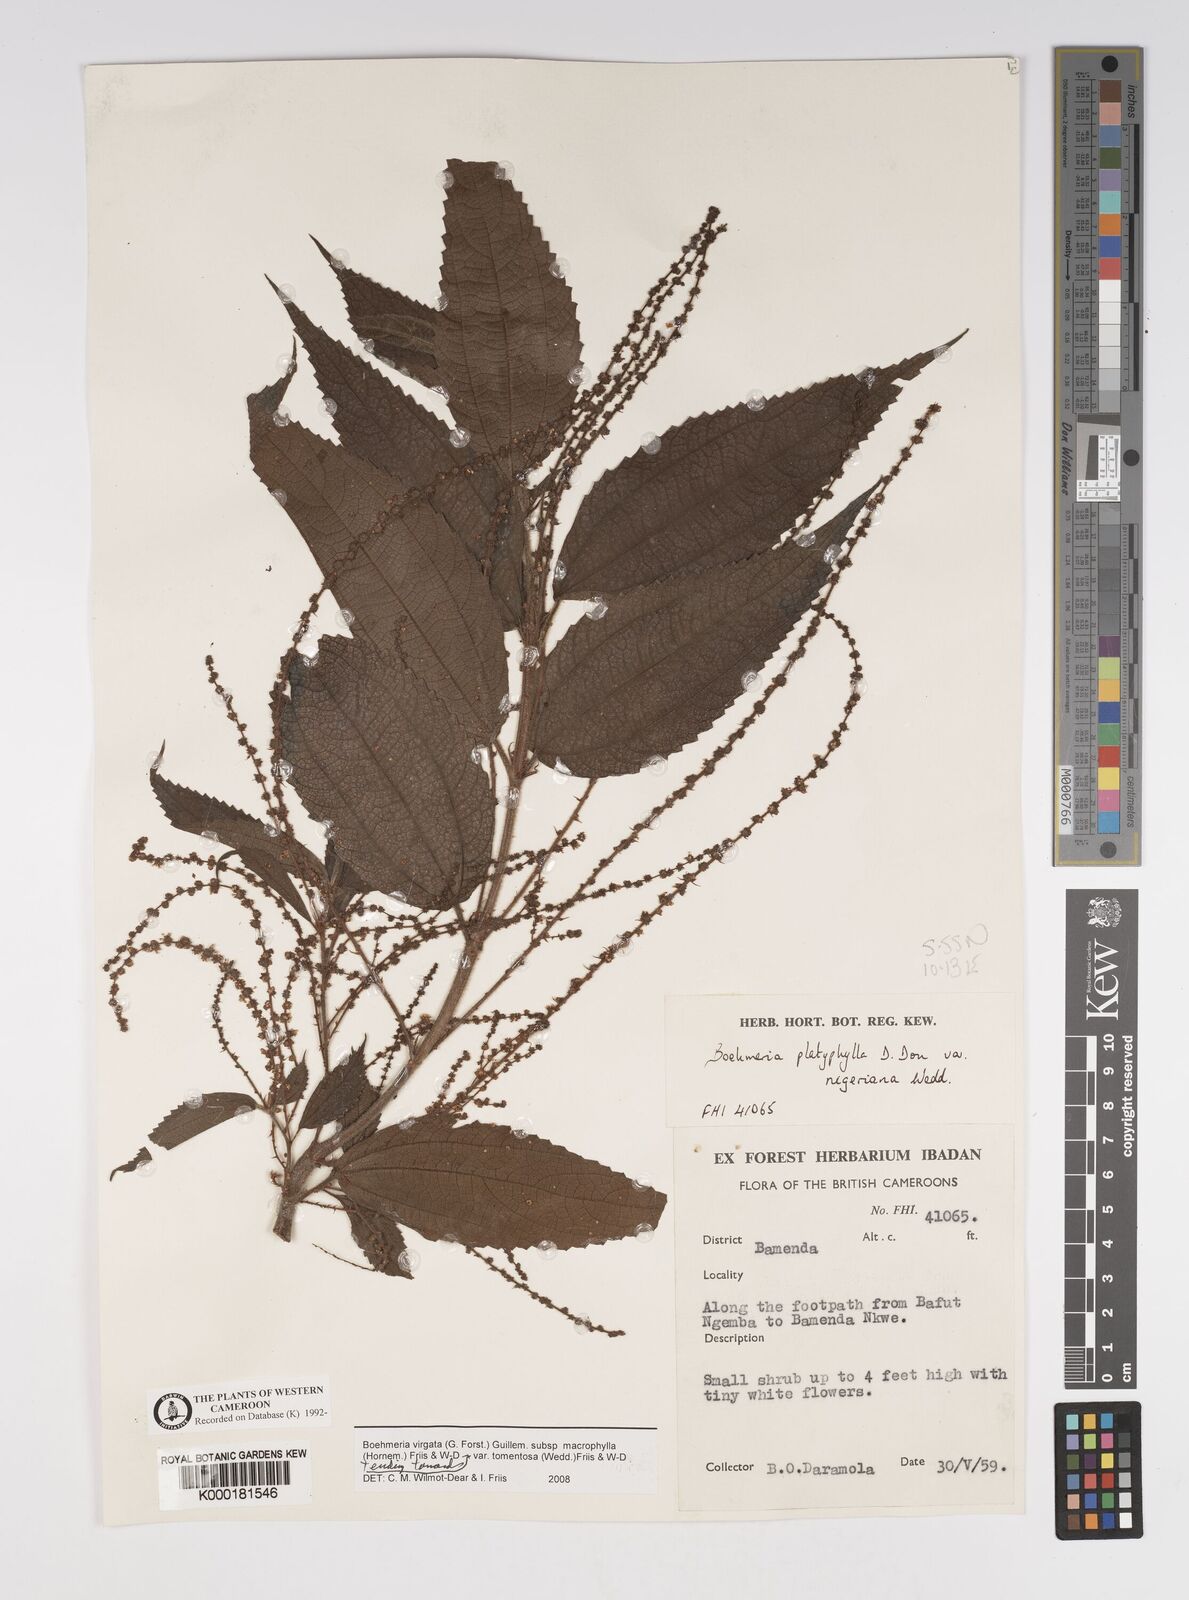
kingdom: Plantae
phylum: Tracheophyta
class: Magnoliopsida
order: Rosales
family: Urticaceae
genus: Boehmeria
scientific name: Boehmeria virgata
